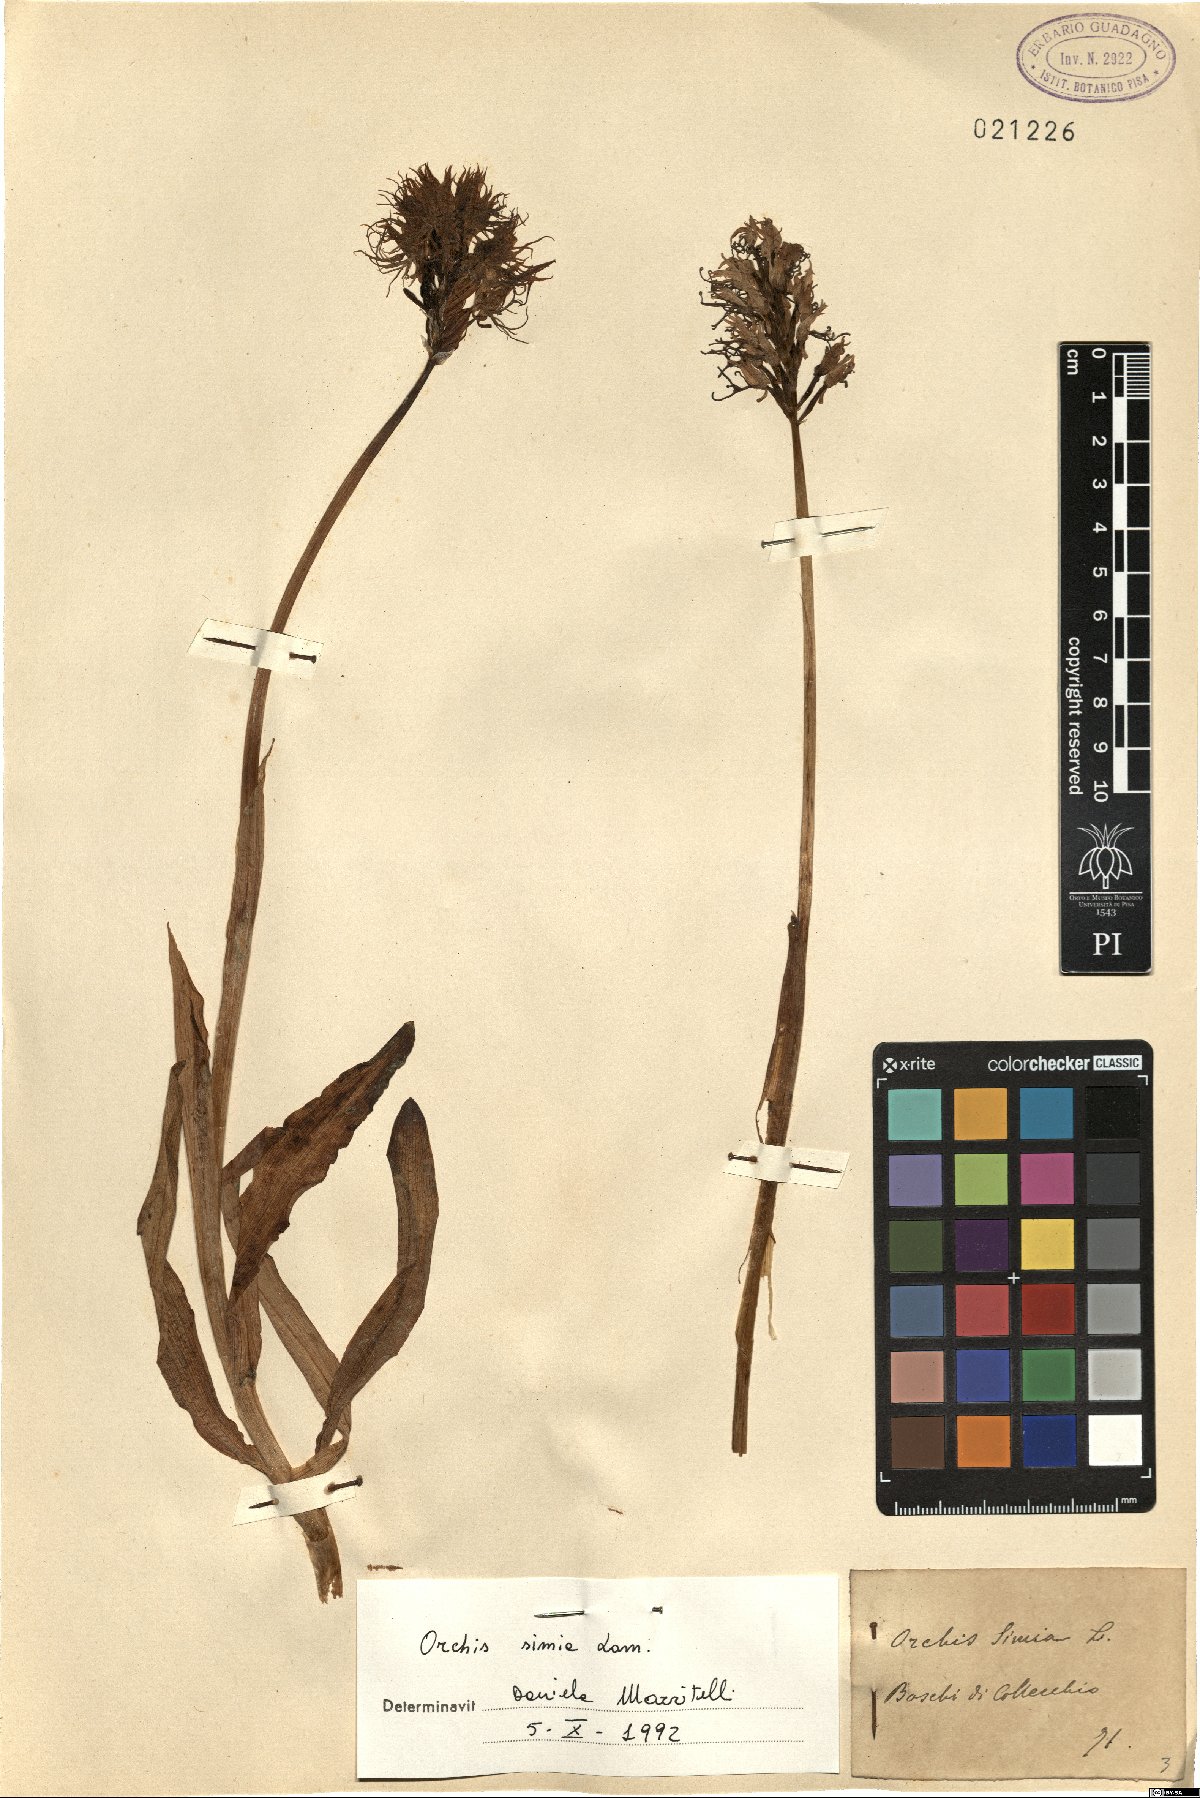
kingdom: Plantae
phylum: Tracheophyta
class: Liliopsida
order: Asparagales
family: Orchidaceae
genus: Orchis
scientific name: Orchis simia
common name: Monkey orchid
